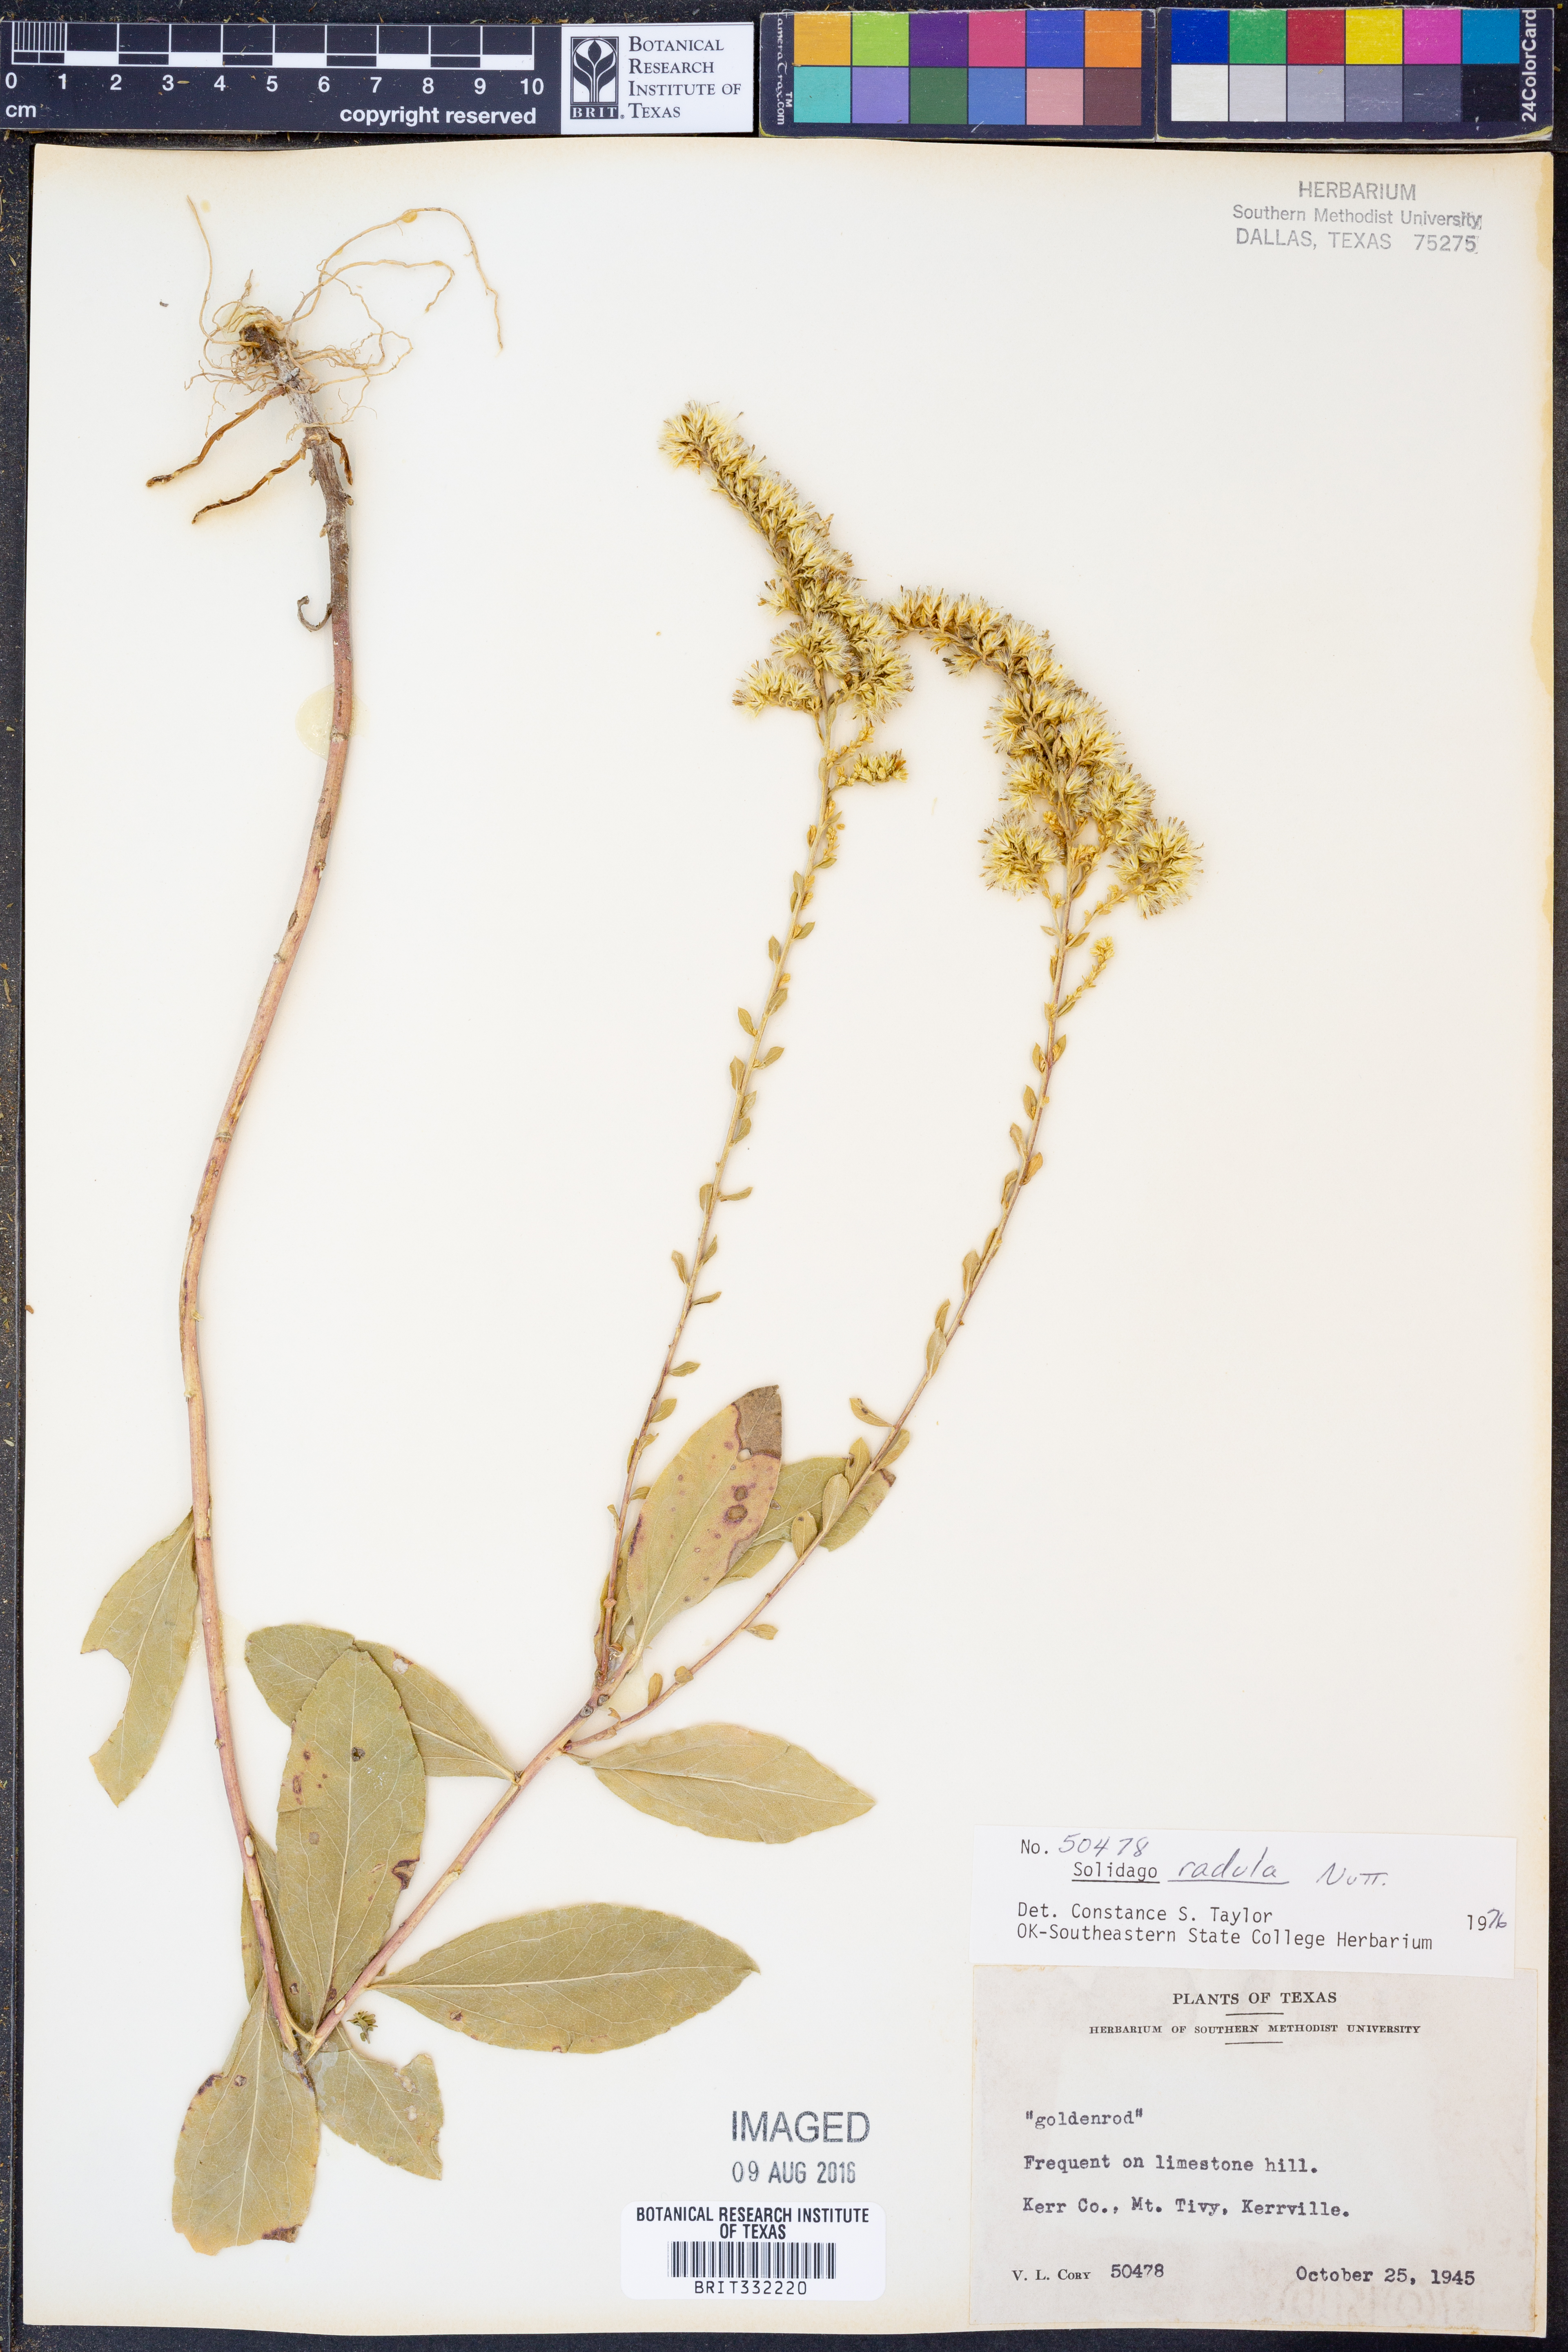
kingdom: Plantae
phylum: Tracheophyta
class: Magnoliopsida
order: Asterales
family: Asteraceae
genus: Solidago
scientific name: Solidago radula
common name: Western rough goldenrod
